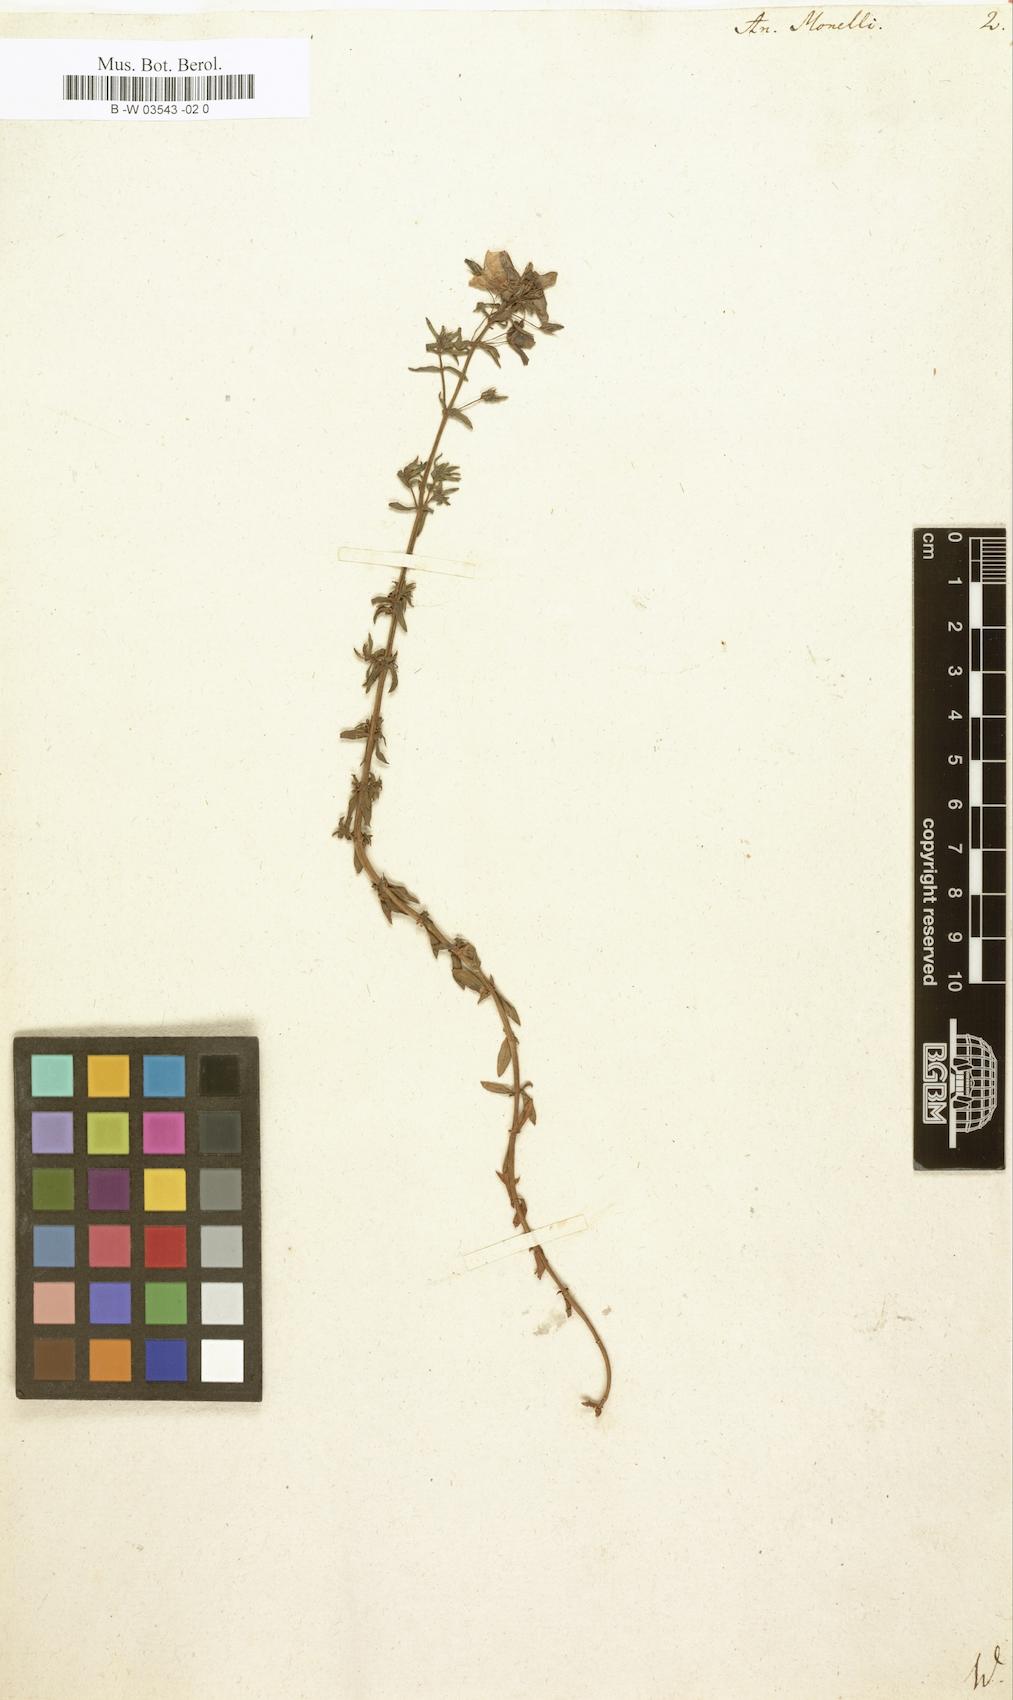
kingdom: Plantae
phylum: Tracheophyta
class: Magnoliopsida
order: Ericales
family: Primulaceae
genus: Lysimachia
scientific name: Lysimachia monelli
